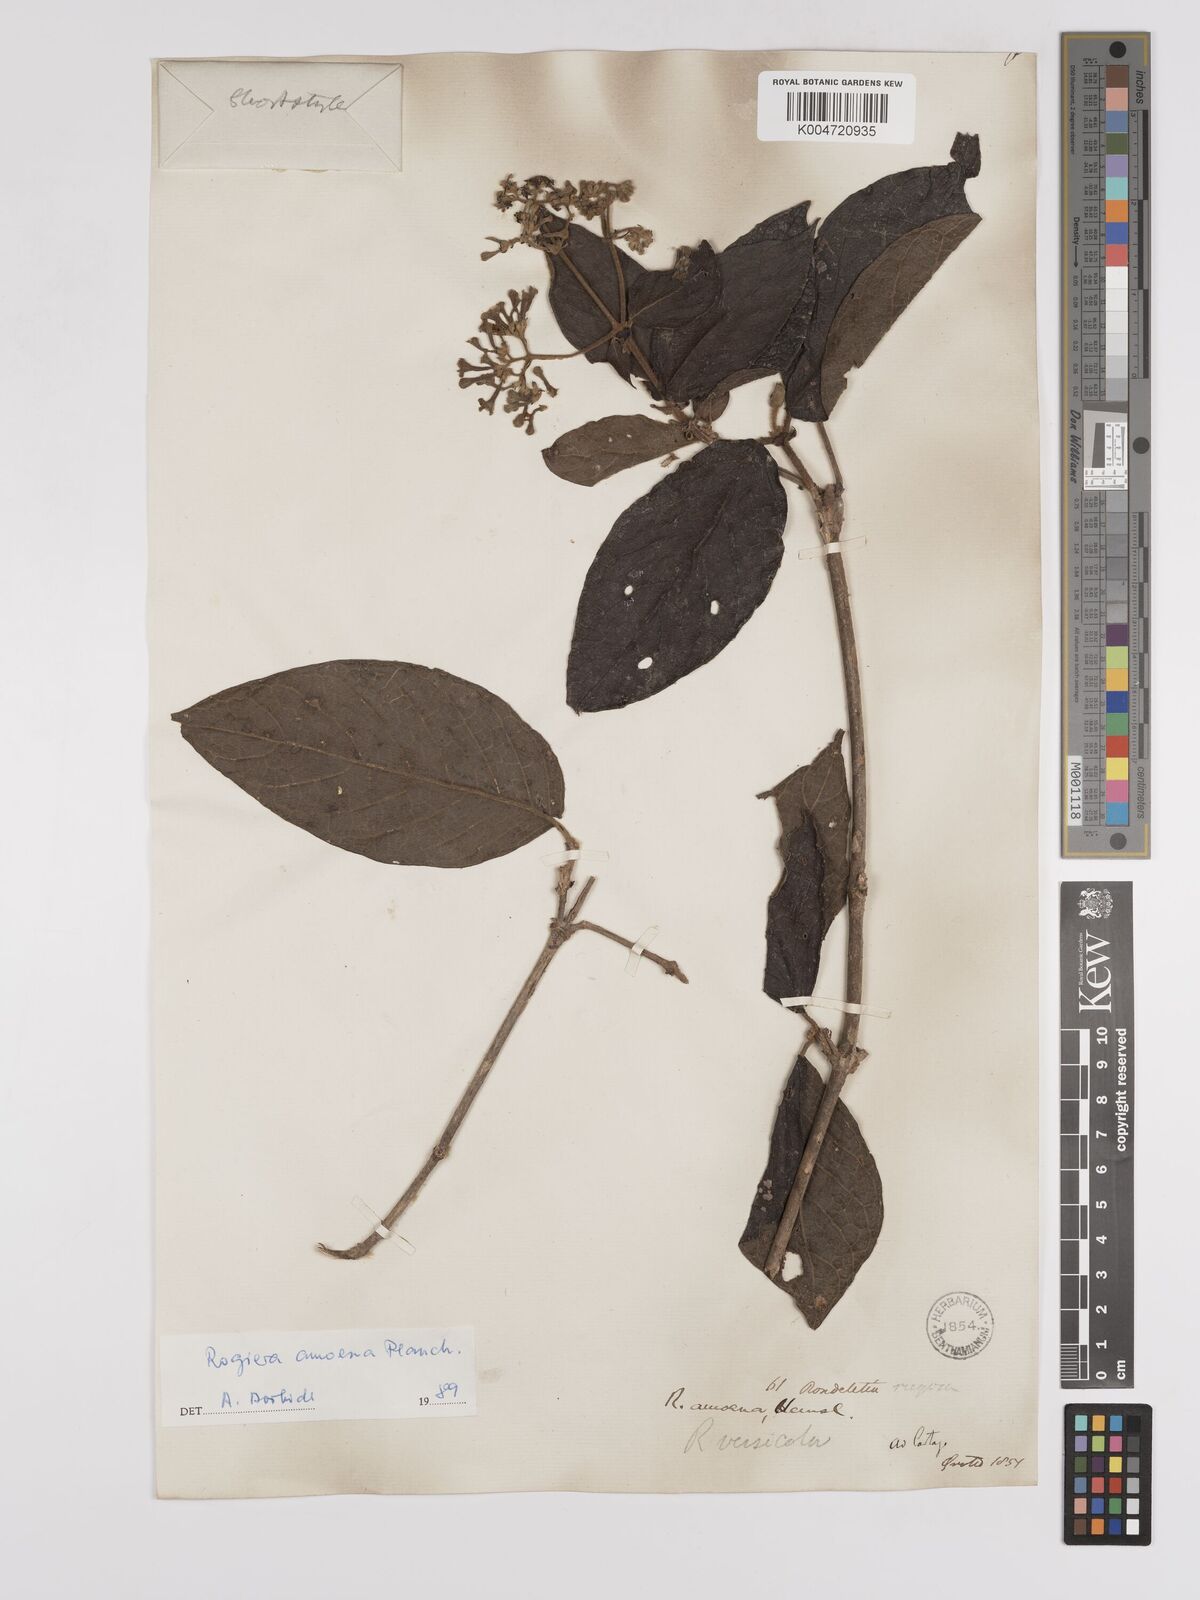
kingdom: Plantae
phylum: Tracheophyta
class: Magnoliopsida
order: Gentianales
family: Rubiaceae
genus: Rogiera
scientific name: Rogiera amoena
